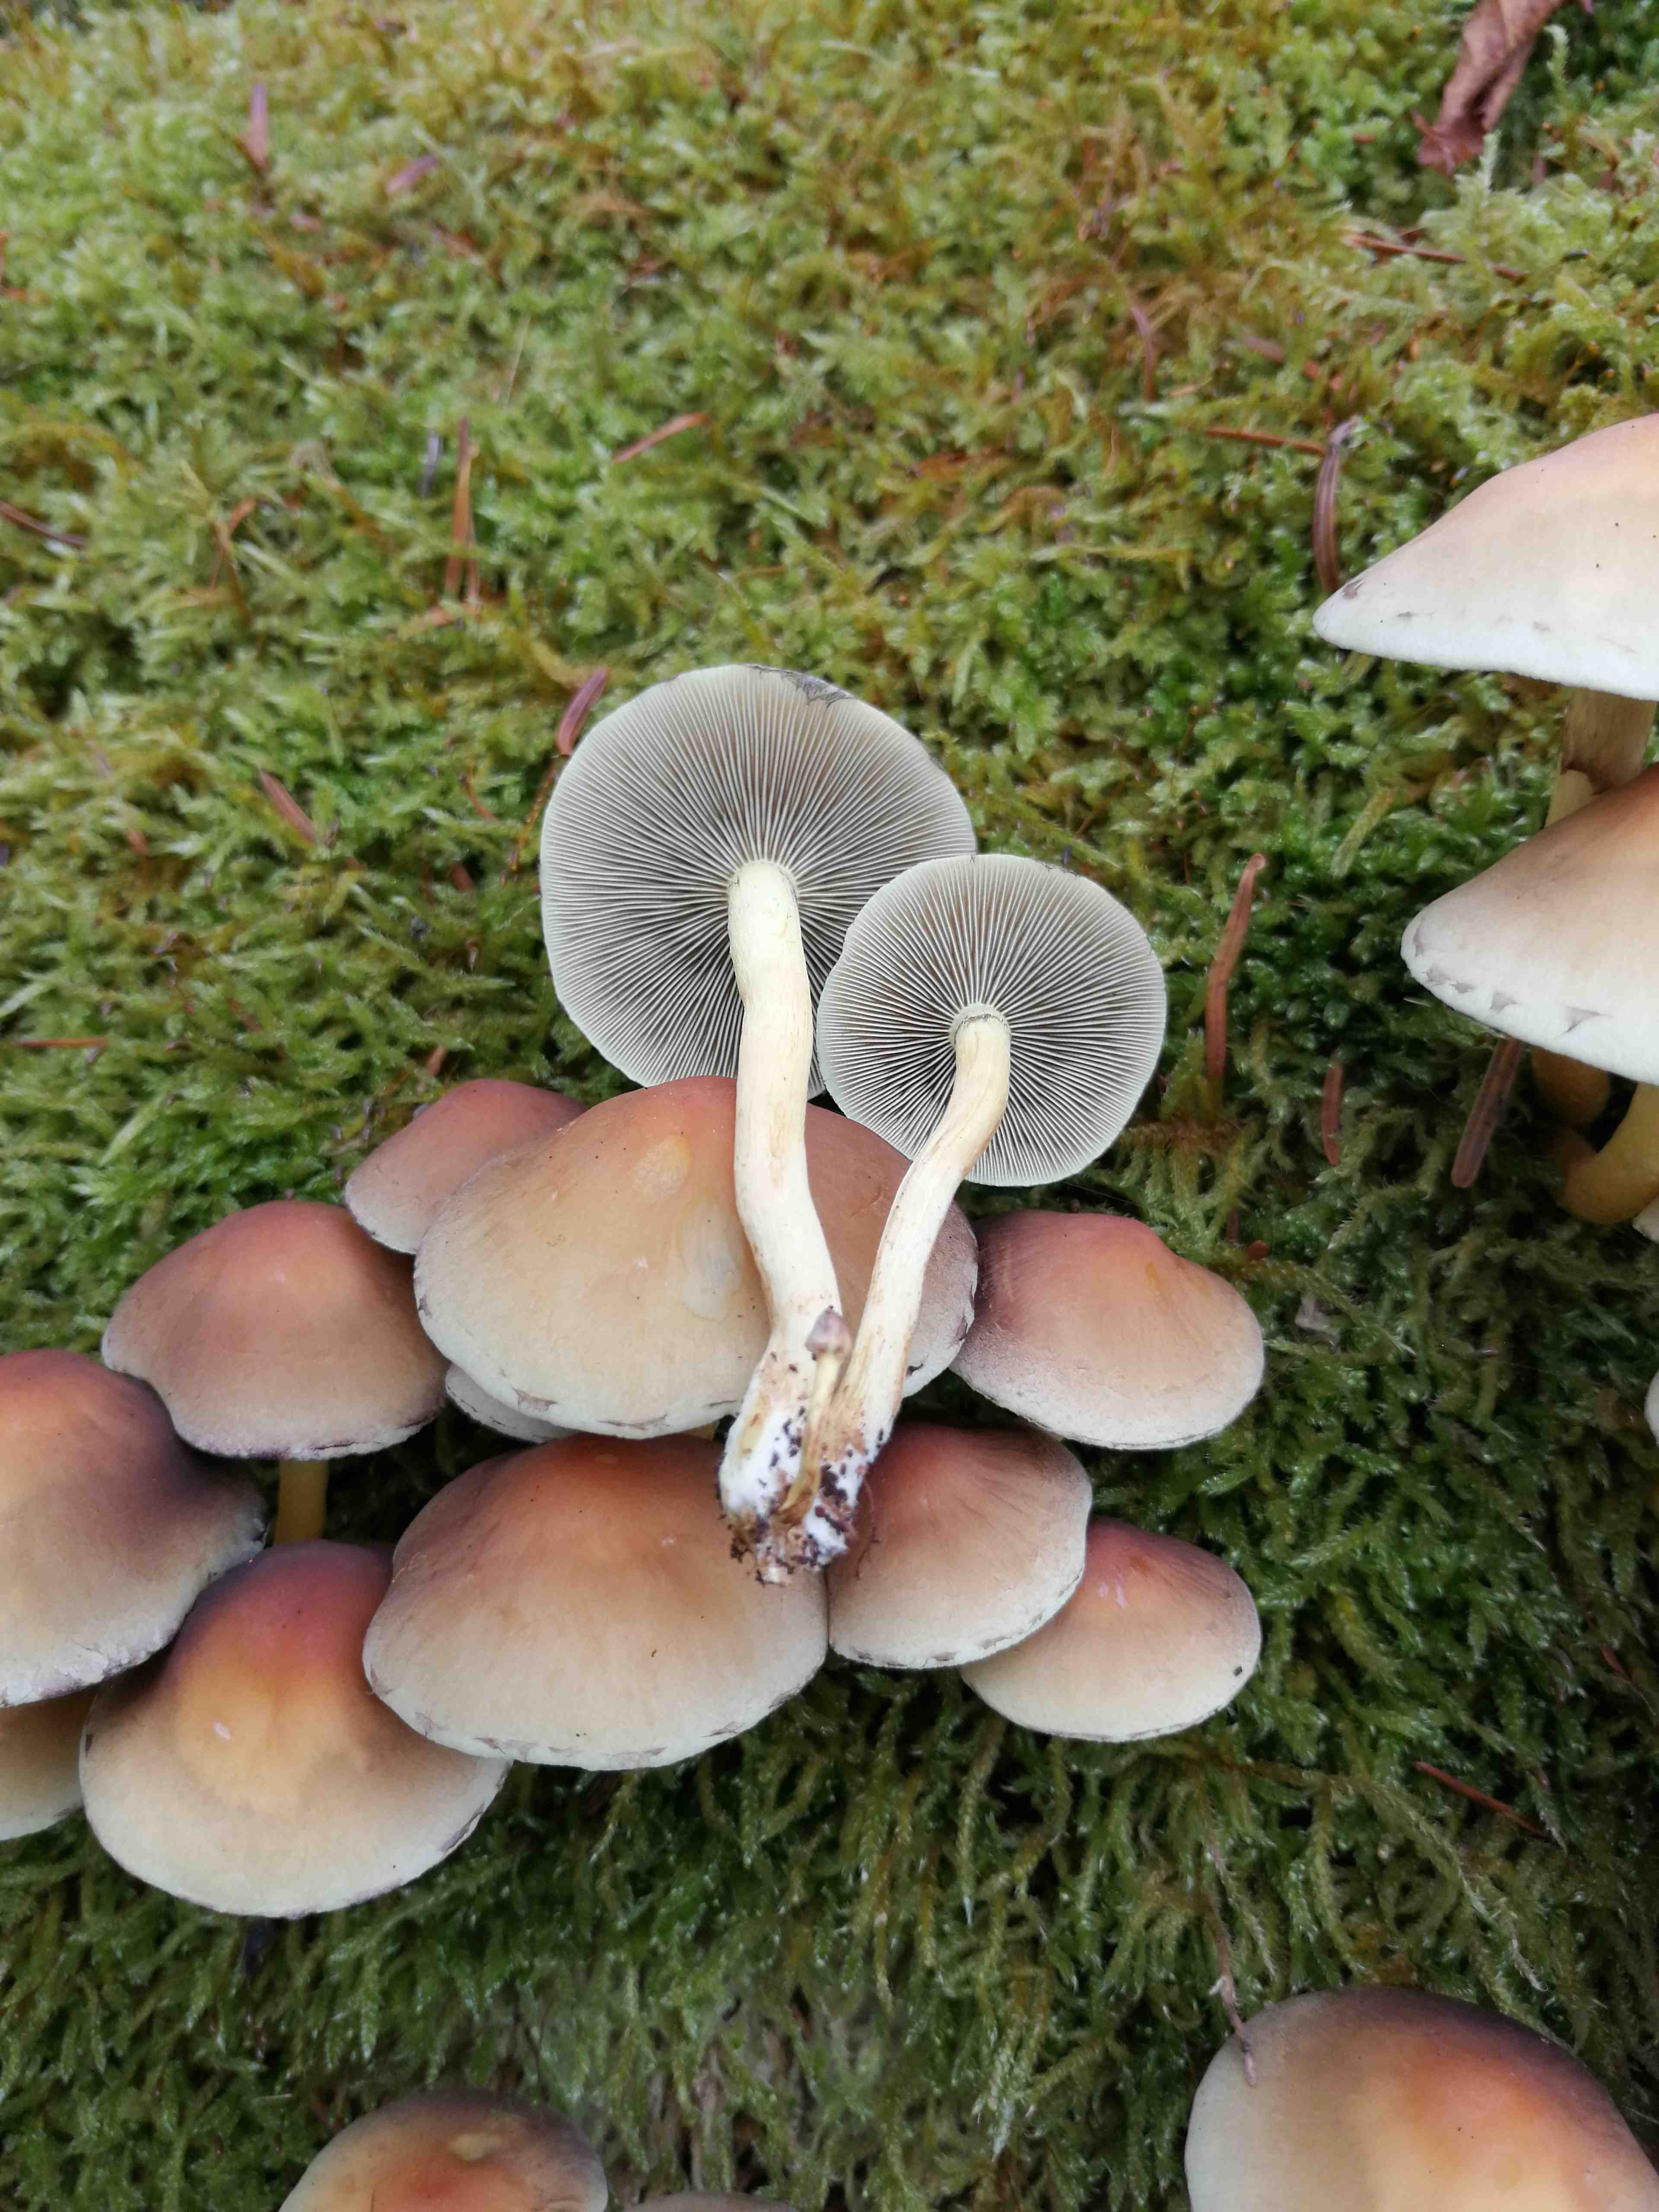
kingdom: Fungi
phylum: Basidiomycota
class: Agaricomycetes
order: Agaricales
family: Strophariaceae
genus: Hypholoma
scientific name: Hypholoma lateritium
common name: teglrød svovlhat
